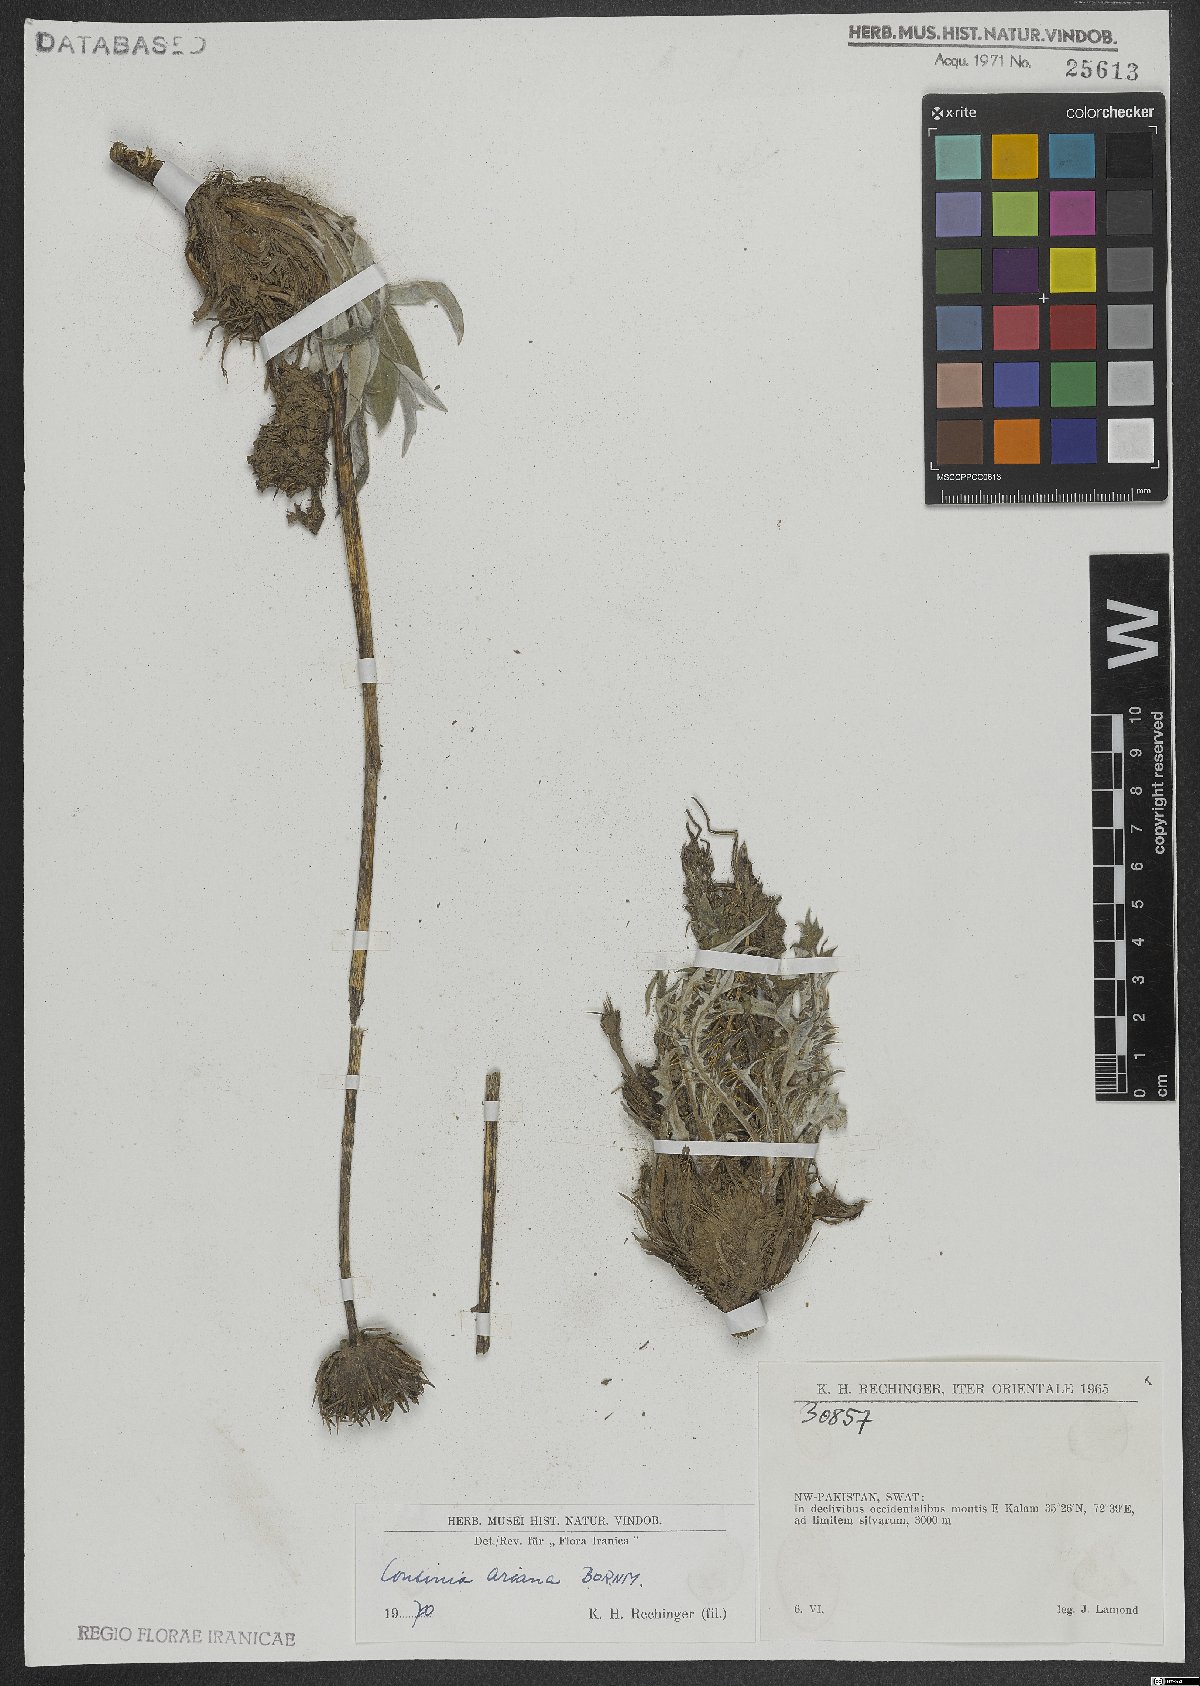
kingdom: Plantae
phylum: Tracheophyta
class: Magnoliopsida
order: Asterales
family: Asteraceae
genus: Cousinia
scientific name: Cousinia ariana
